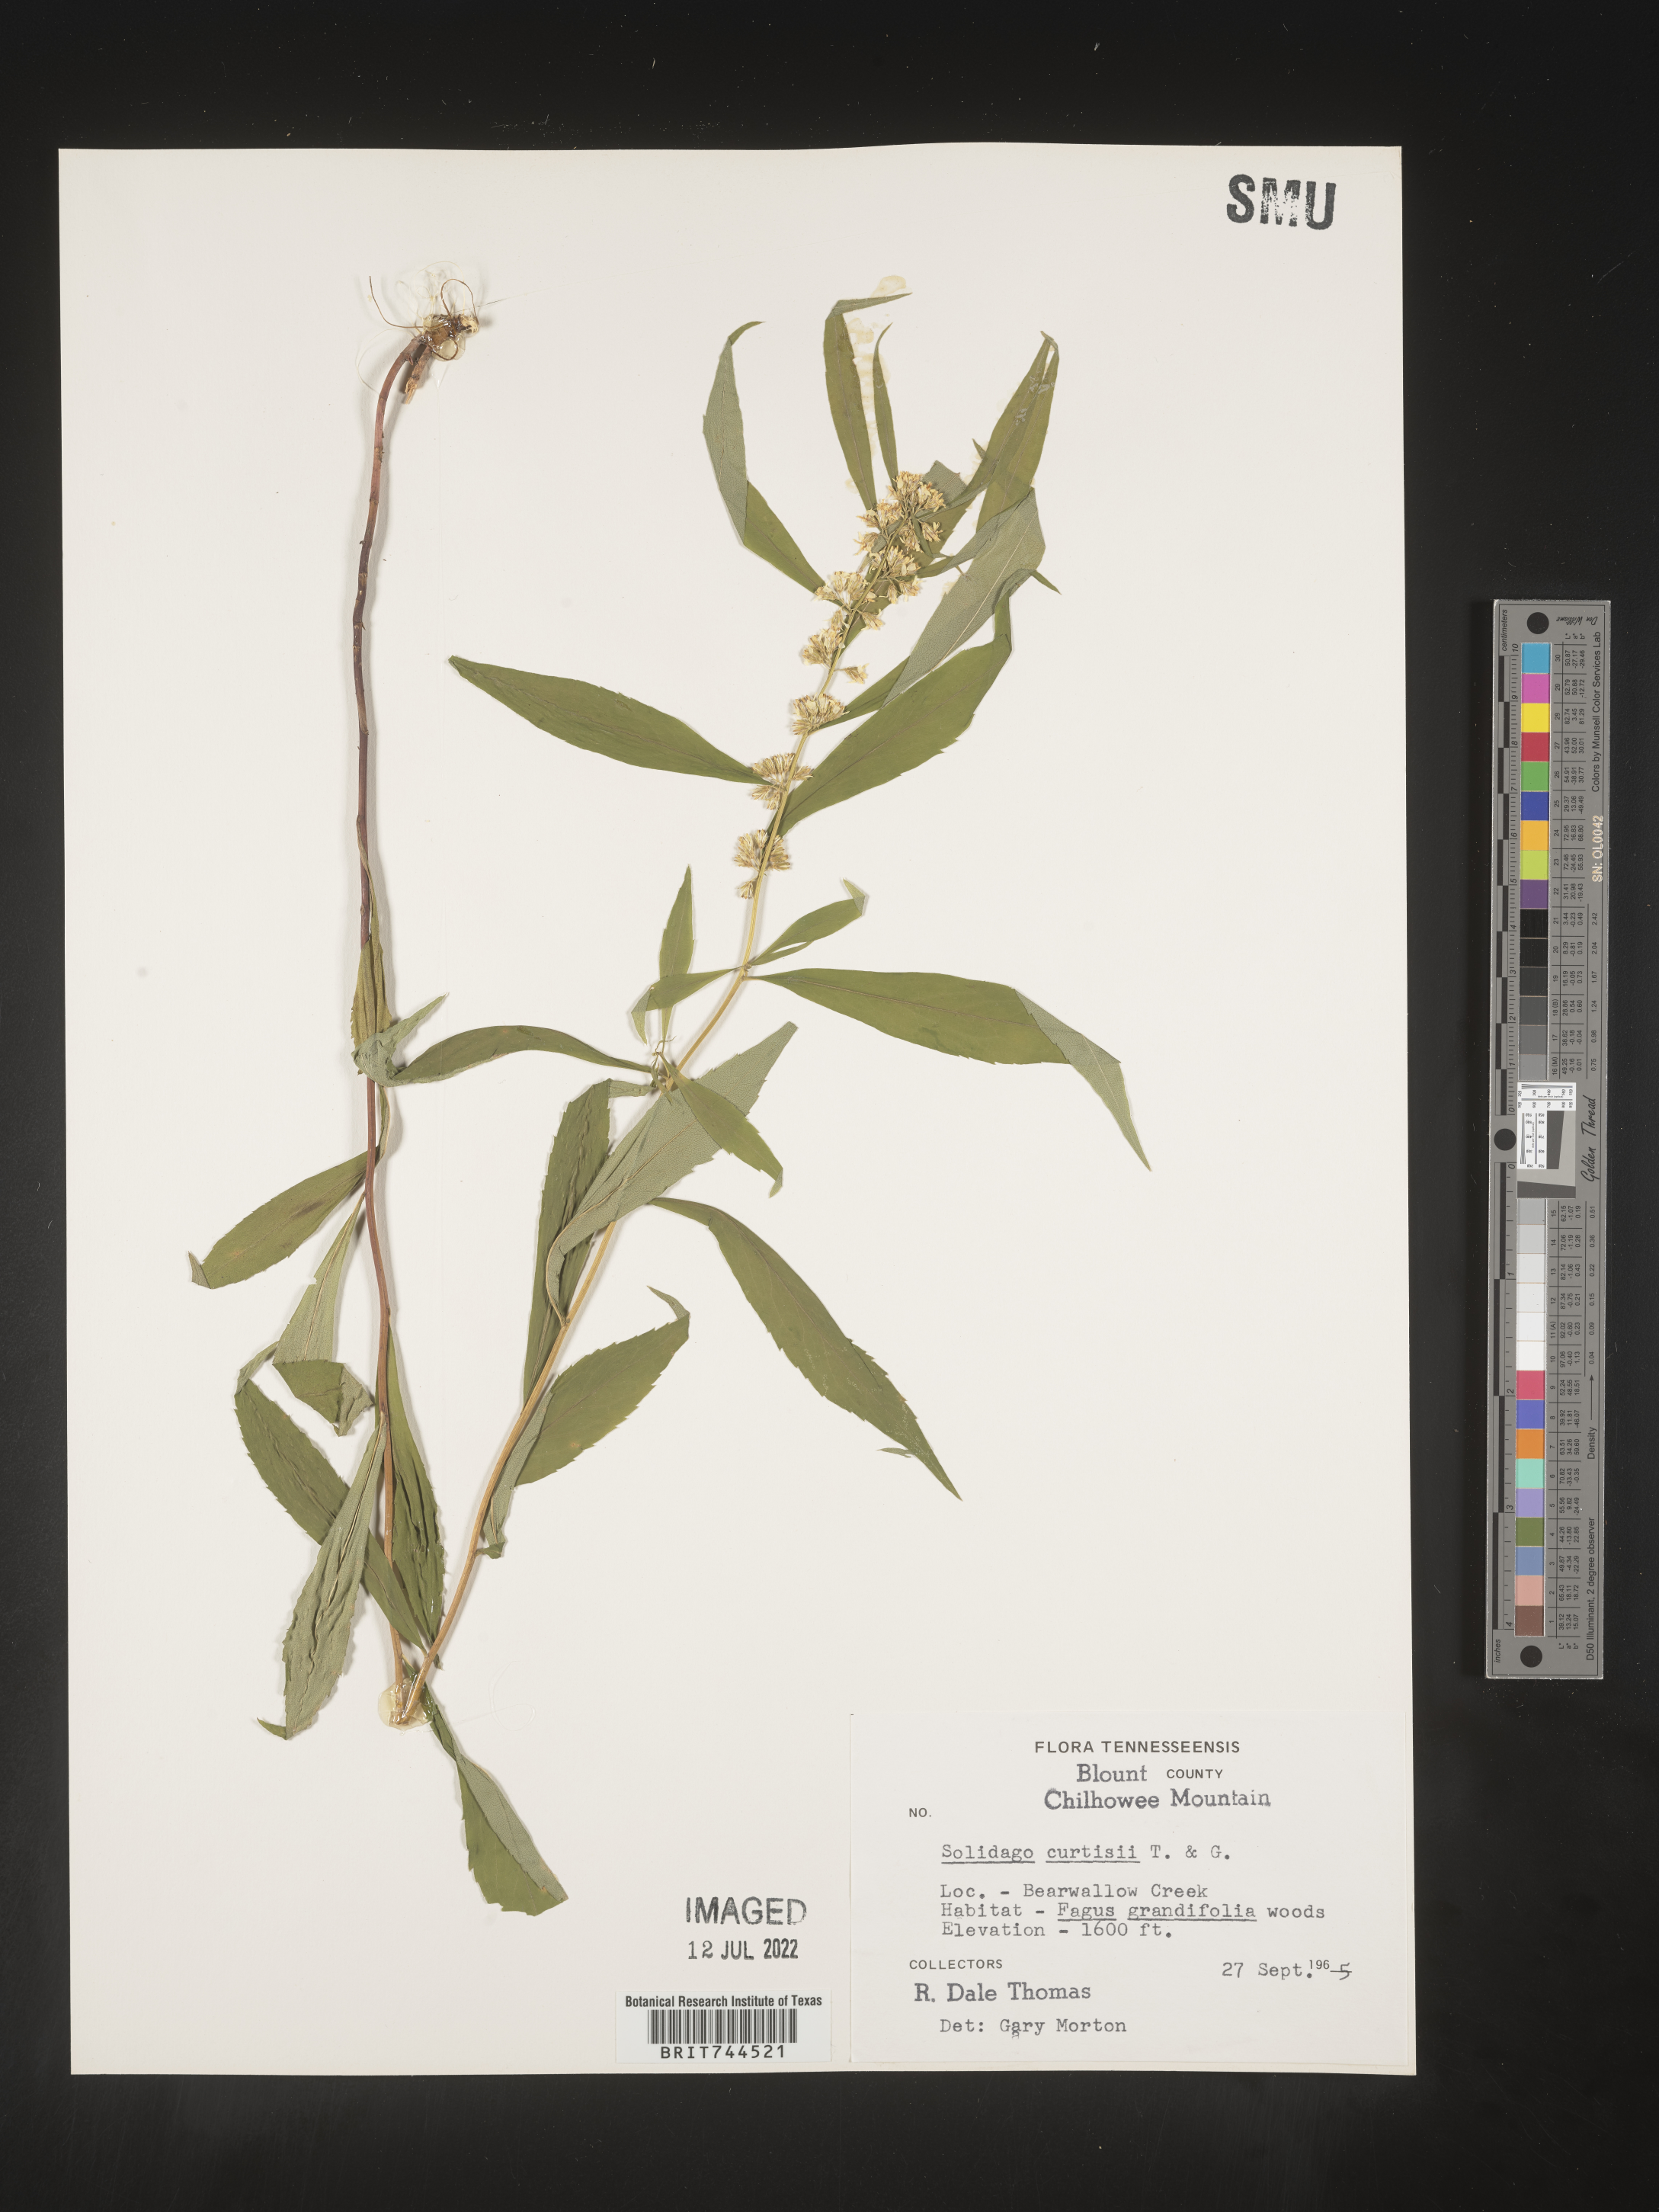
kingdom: Plantae
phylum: Tracheophyta
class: Magnoliopsida
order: Asterales
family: Asteraceae
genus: Solidago
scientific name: Solidago caesia
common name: Woodland goldenrod
